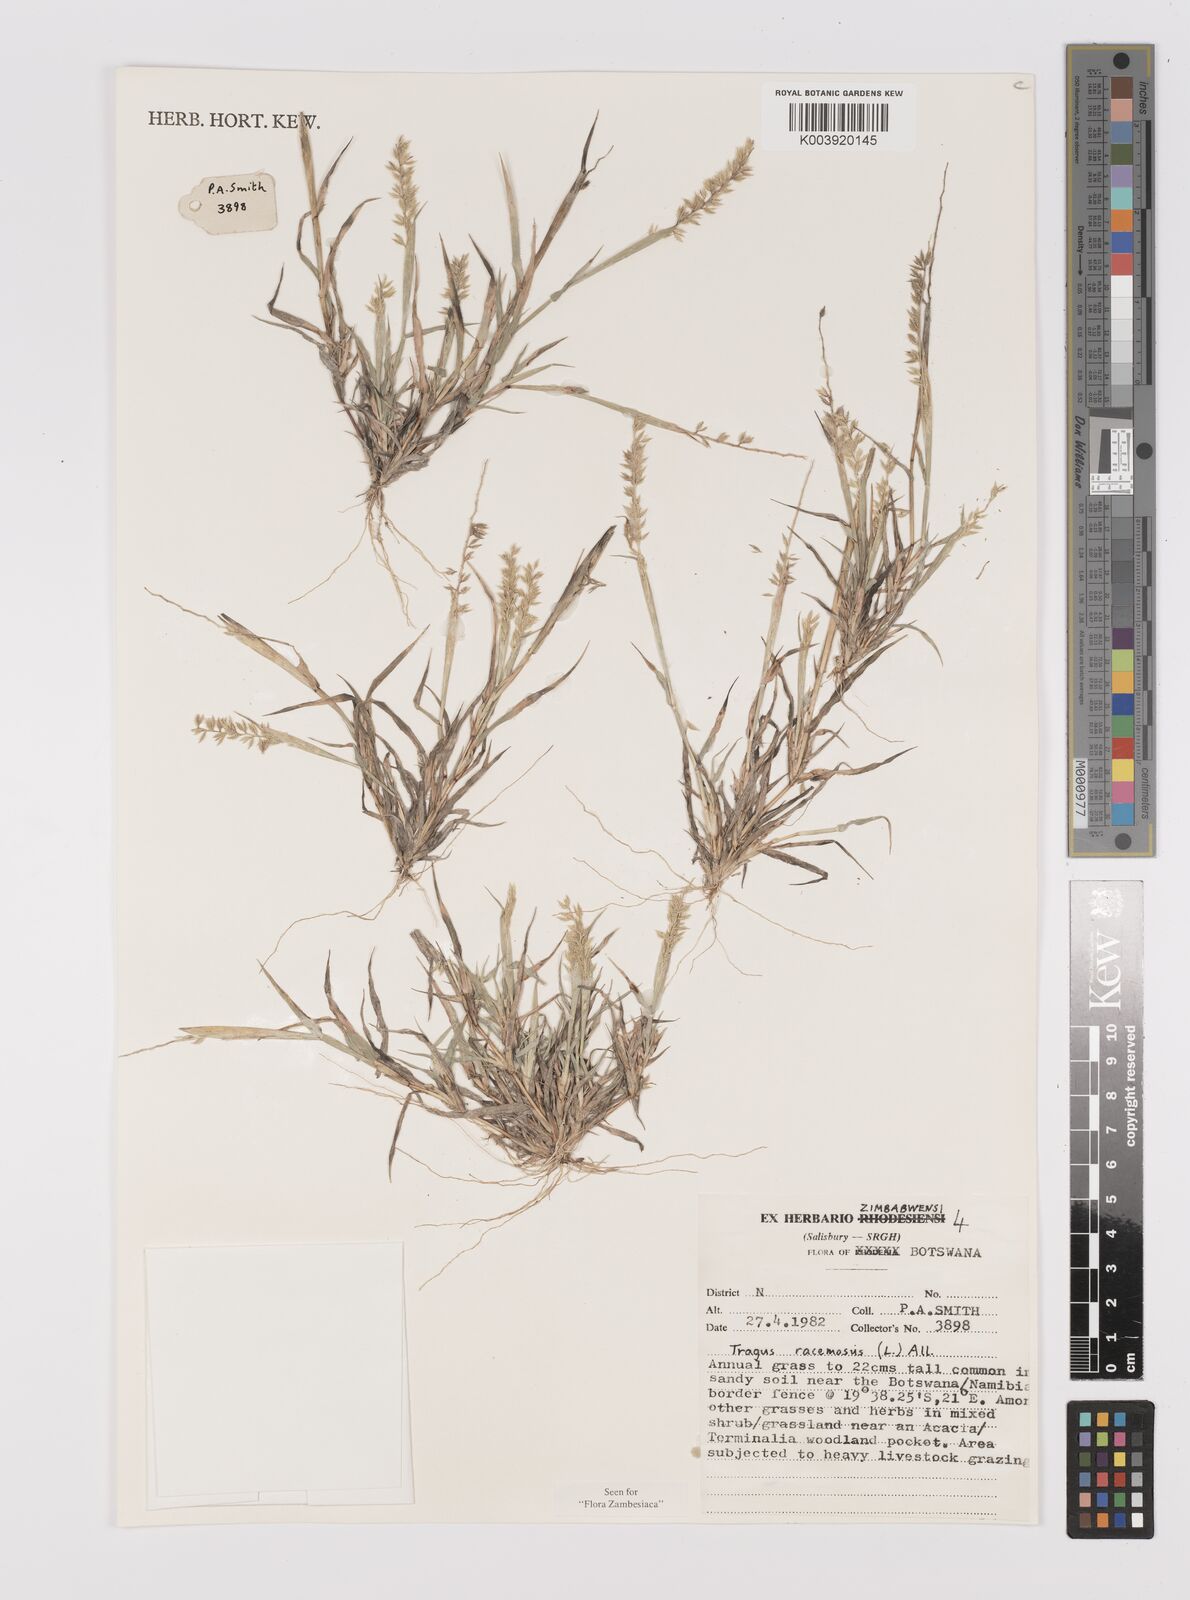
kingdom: Plantae
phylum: Tracheophyta
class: Liliopsida
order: Poales
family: Poaceae
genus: Tragus
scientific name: Tragus racemosus
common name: European bur-grass
